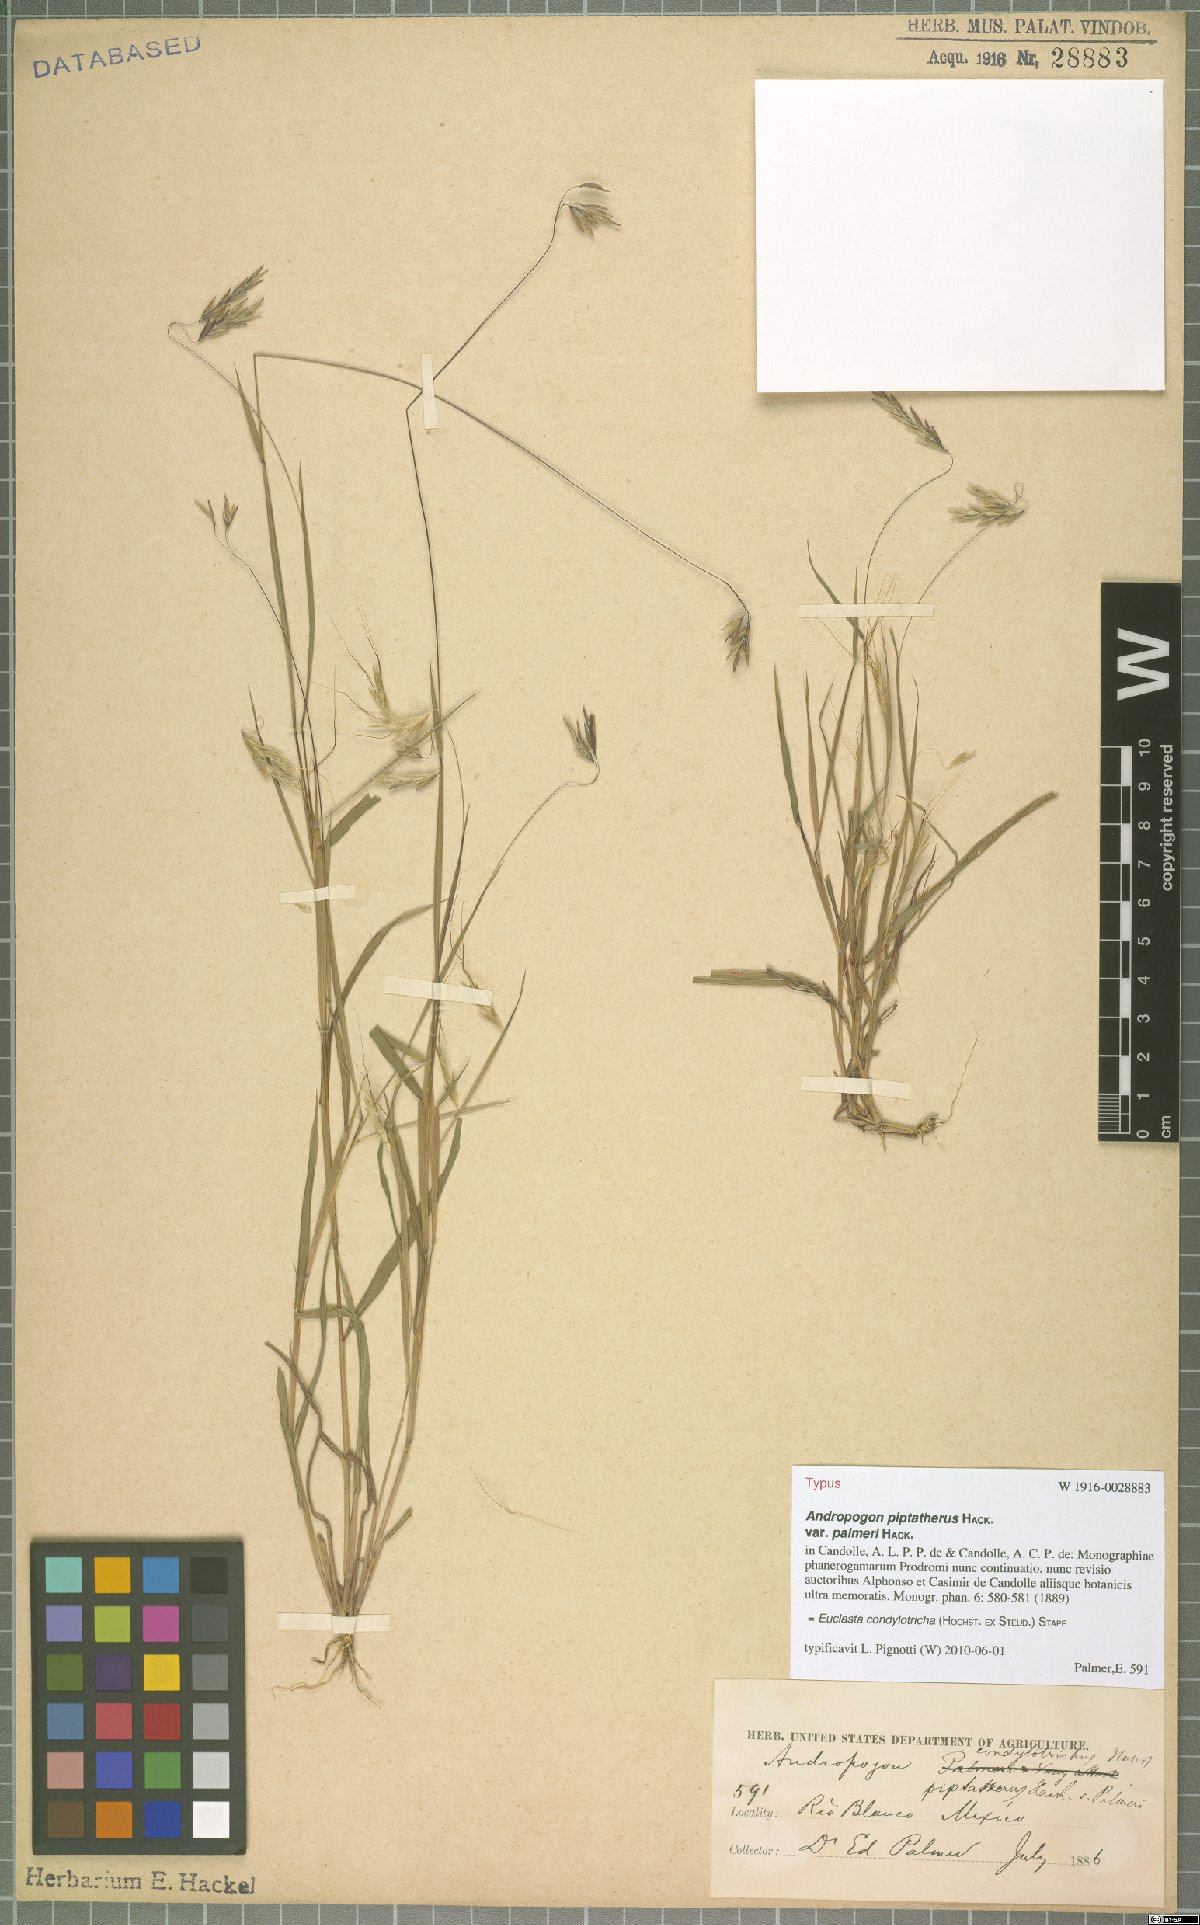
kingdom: Plantae
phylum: Tracheophyta
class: Liliopsida
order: Poales
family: Poaceae
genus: Euclasta
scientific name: Euclasta condylotricha
